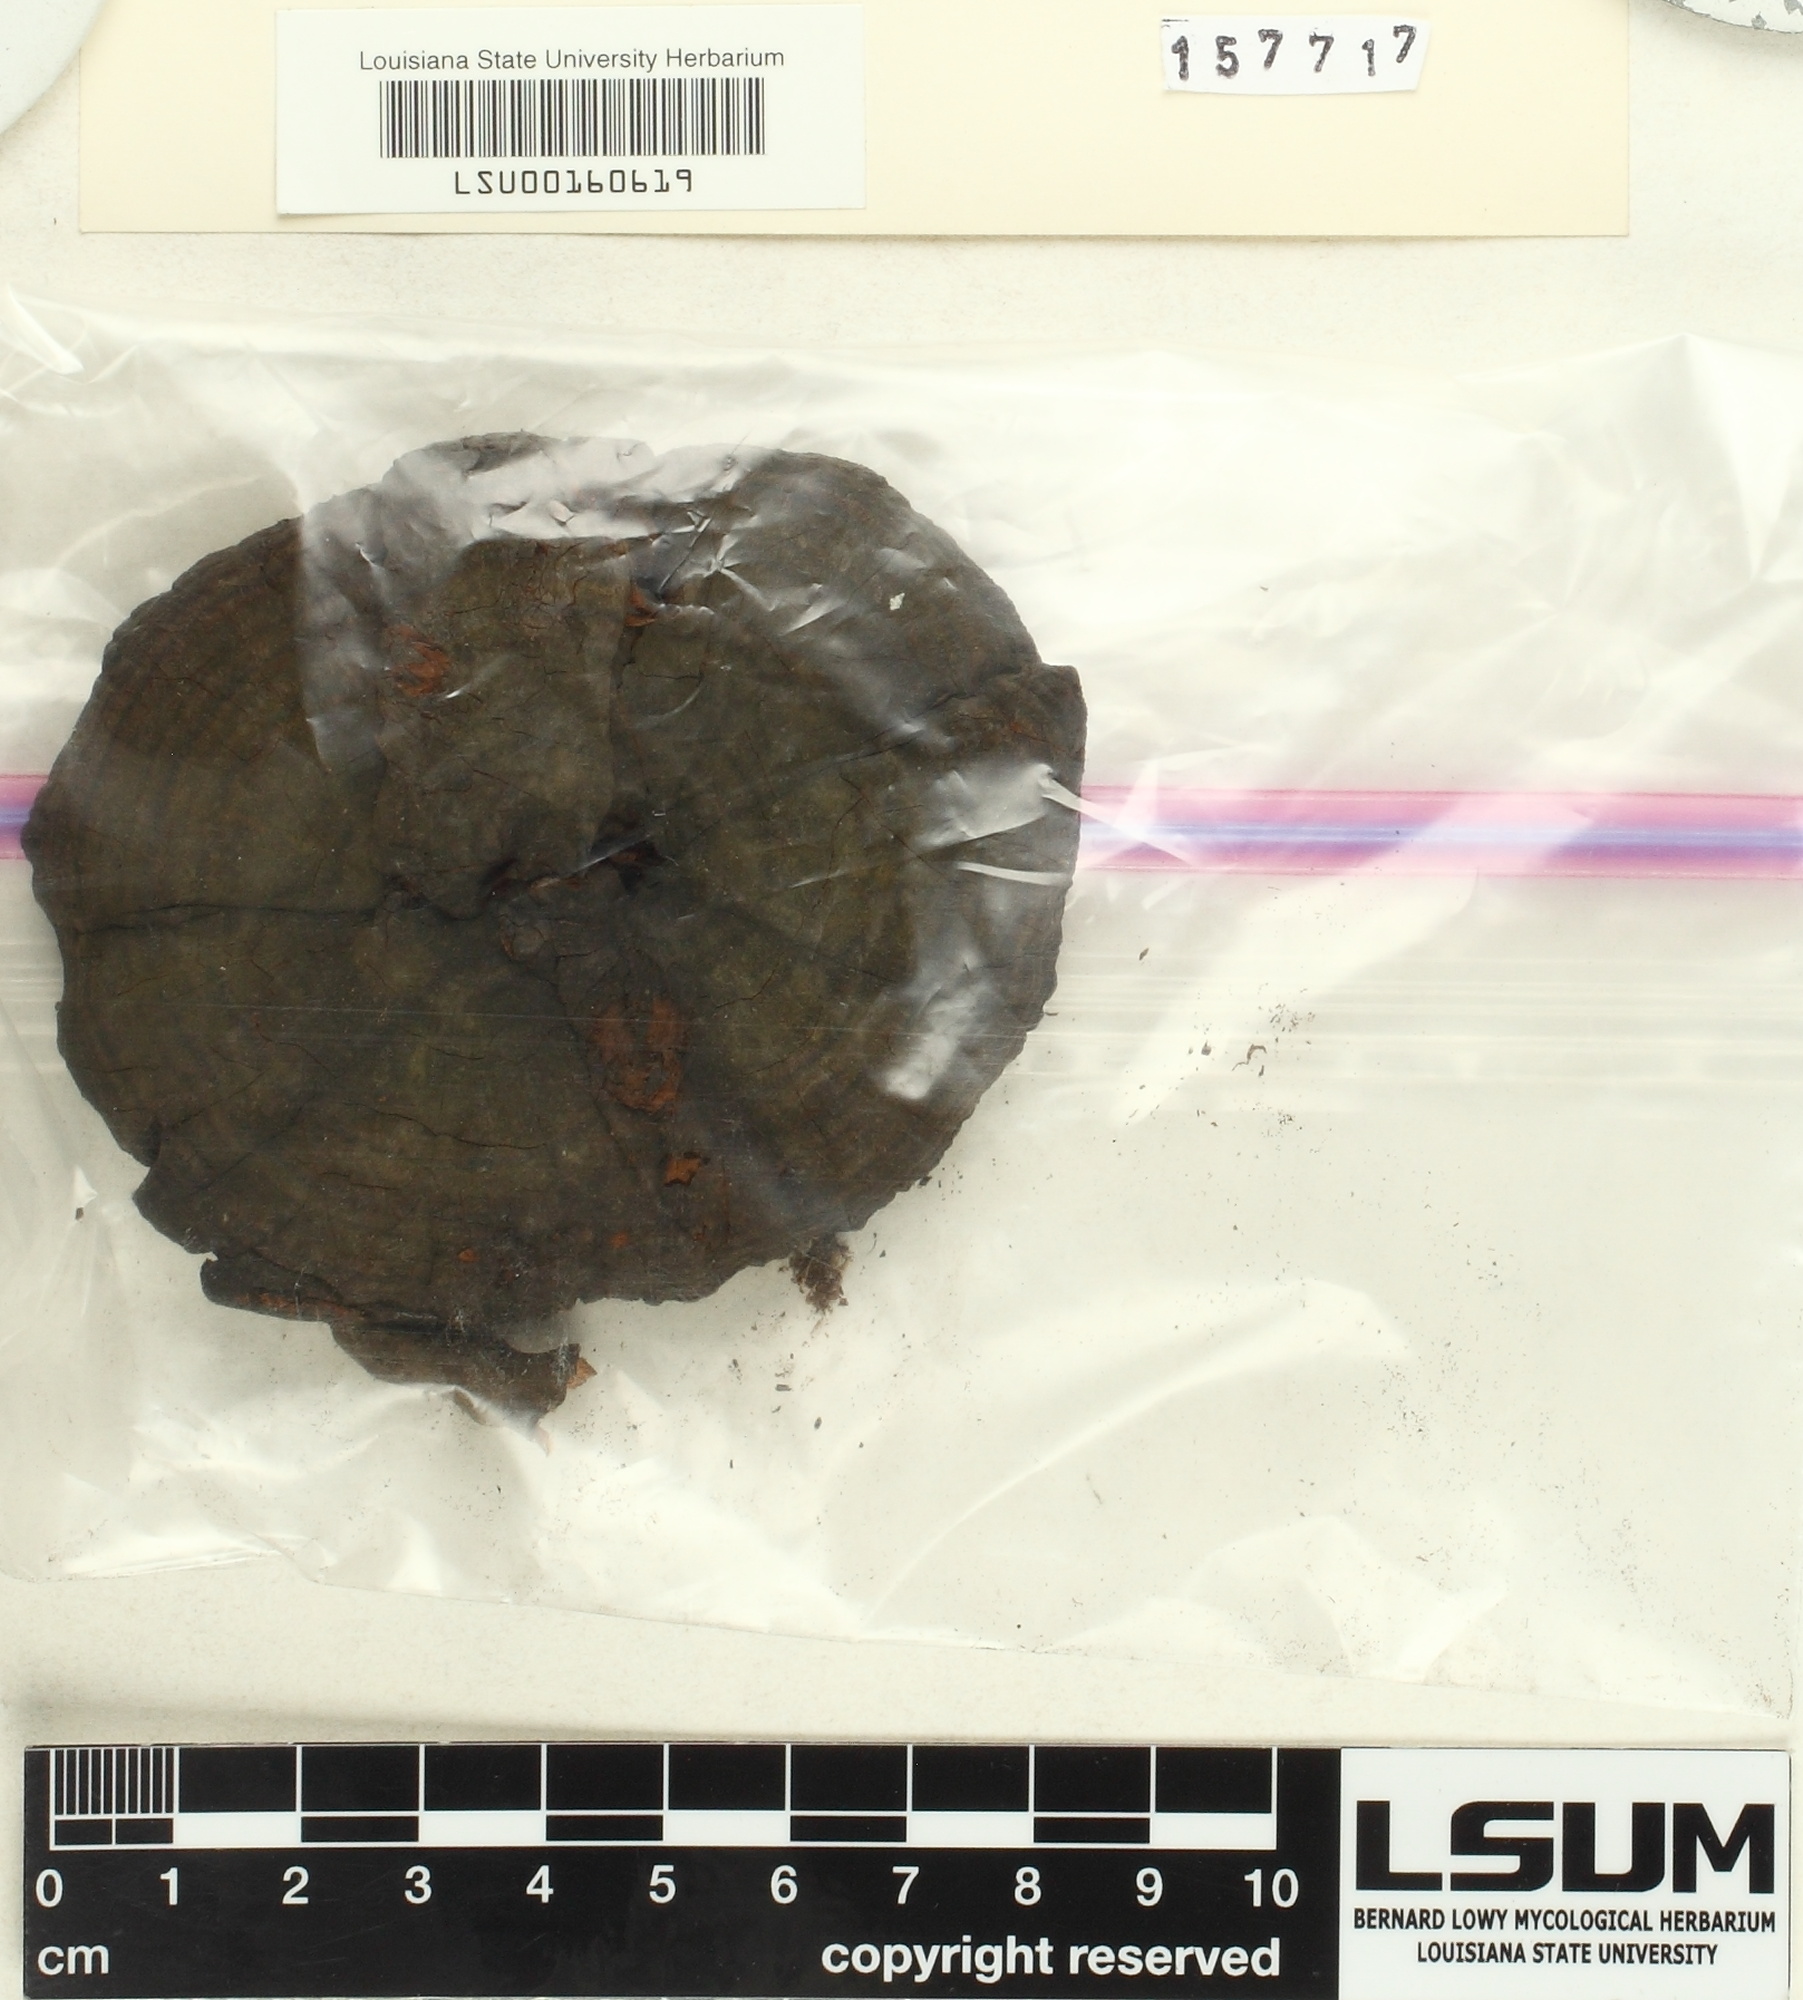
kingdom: Fungi
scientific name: Fungi
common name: Fungi
